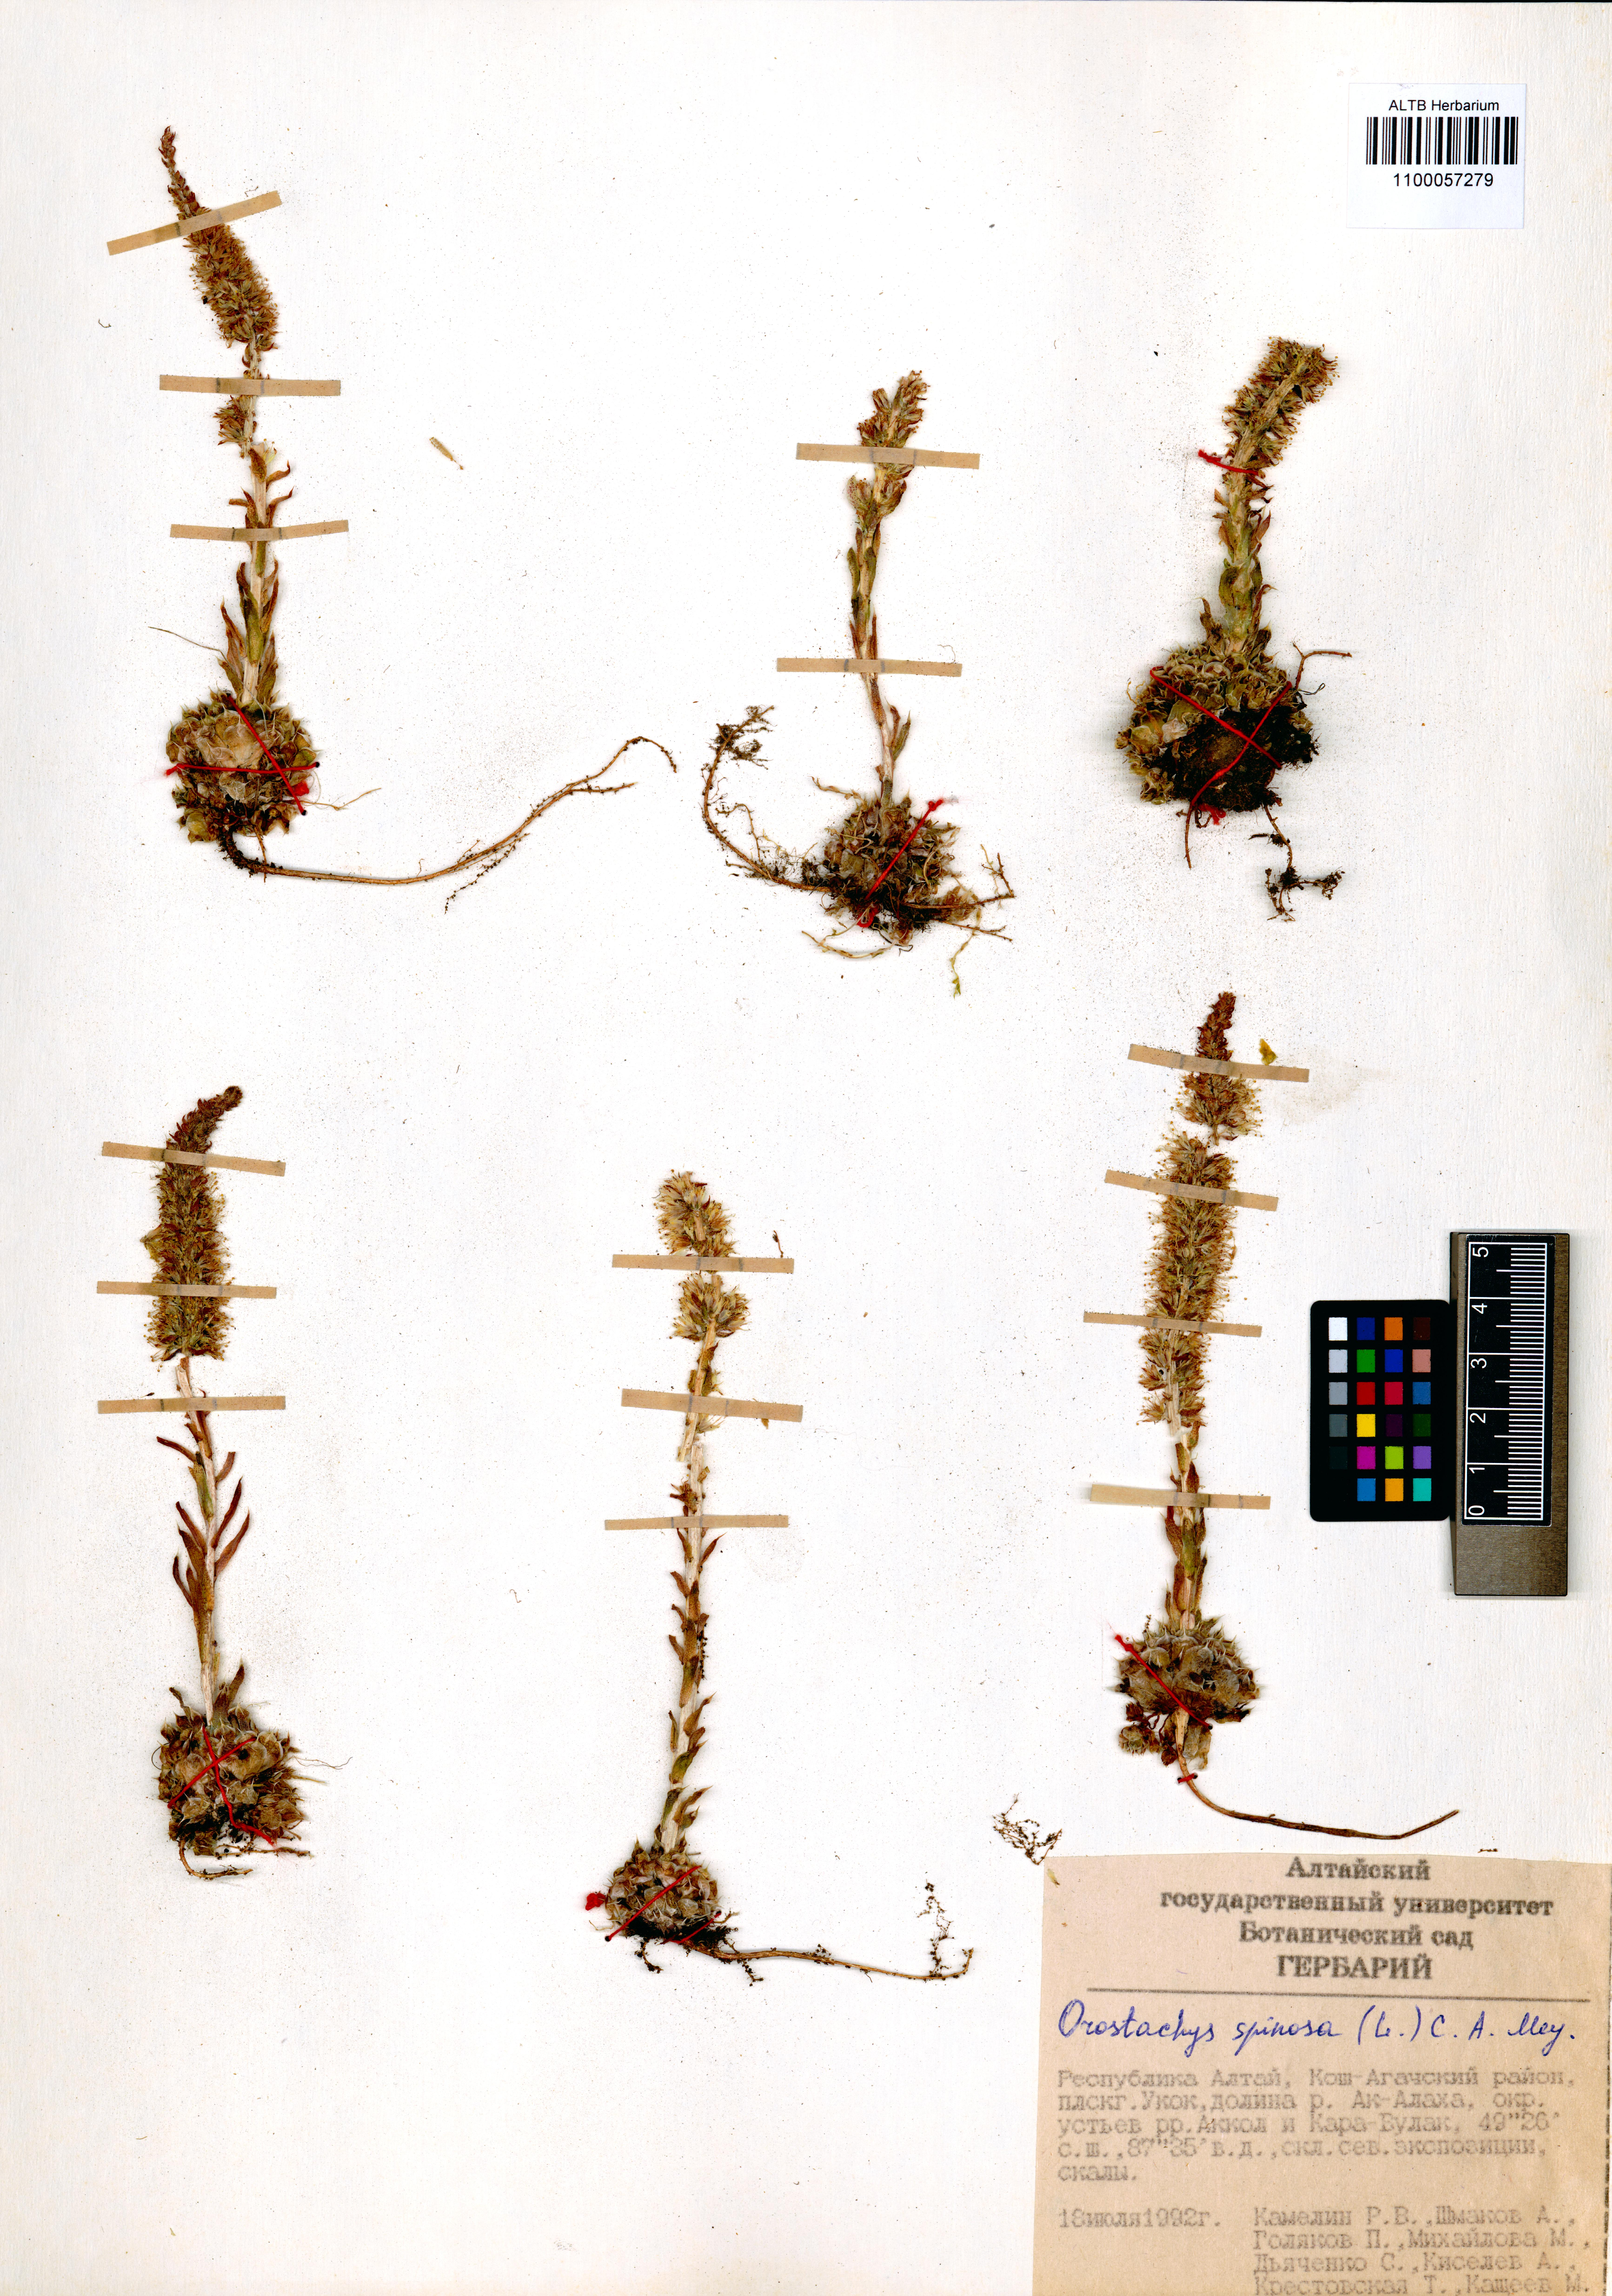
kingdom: Plantae
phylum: Tracheophyta
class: Magnoliopsida
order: Saxifragales
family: Crassulaceae
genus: Orostachys
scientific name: Orostachys spinosa
